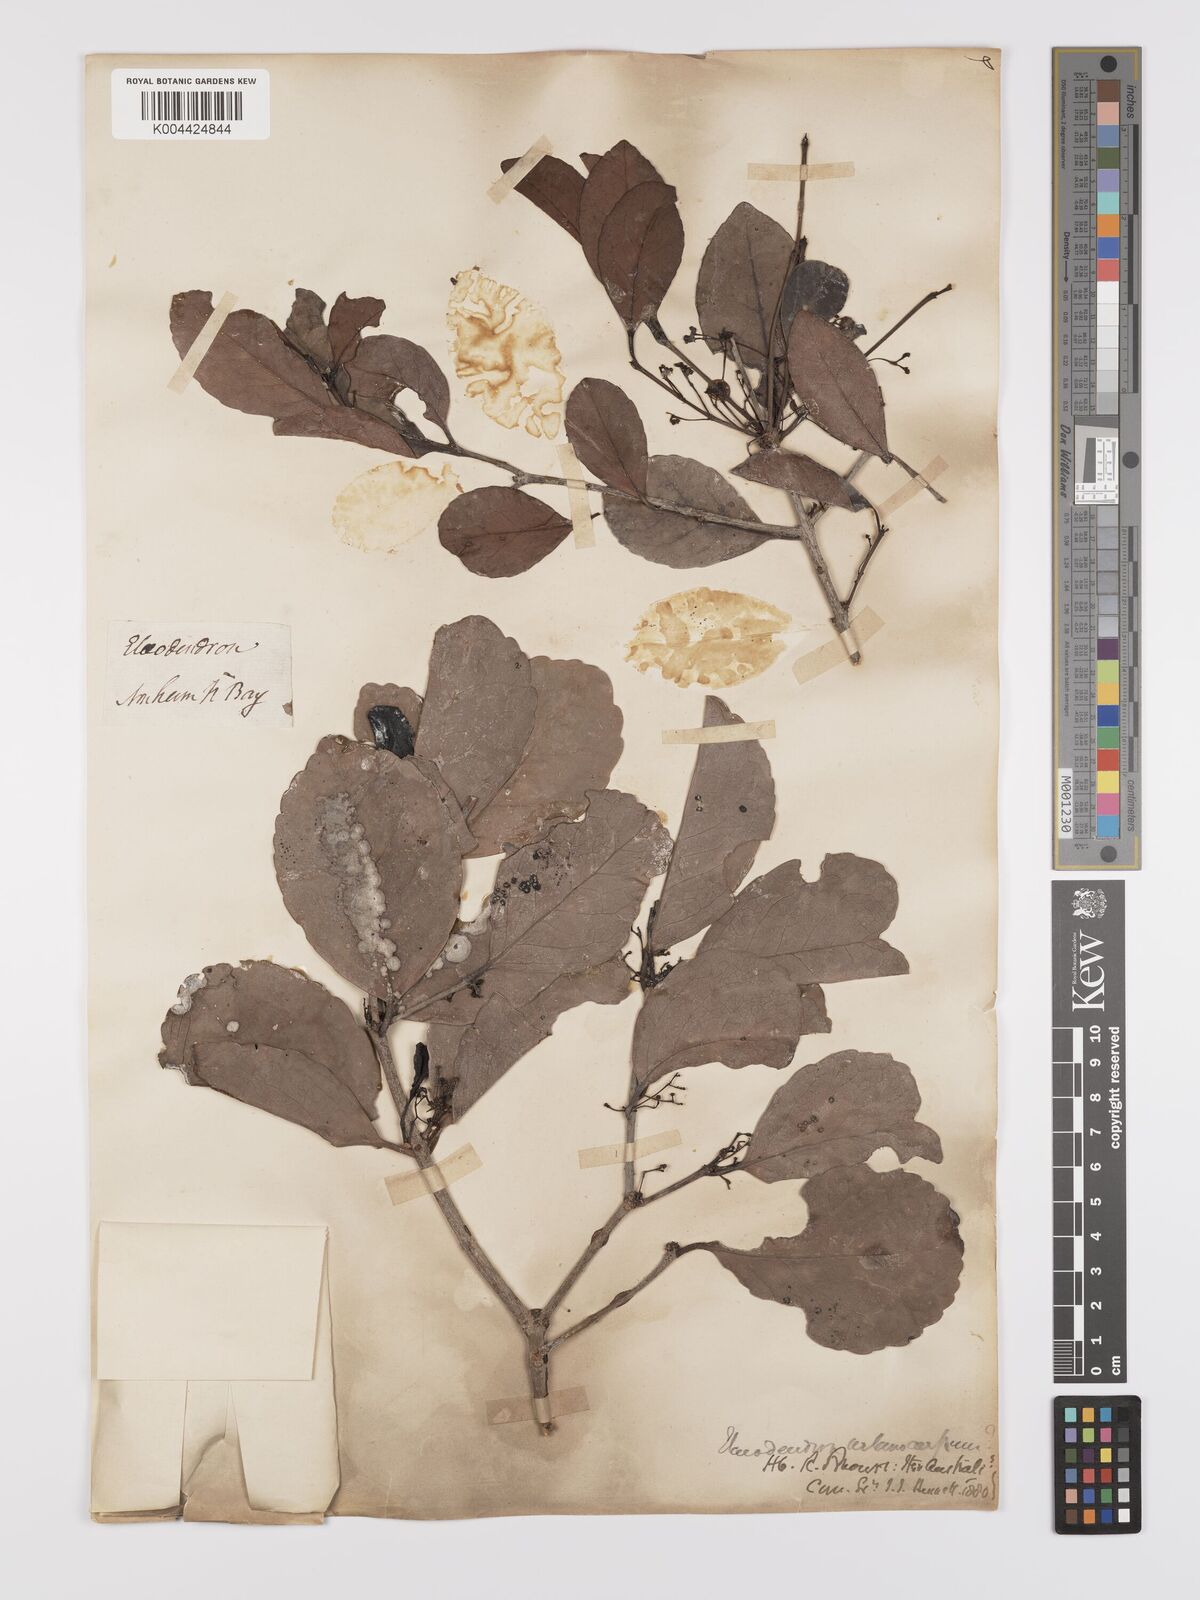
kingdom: Plantae
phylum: Tracheophyta
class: Magnoliopsida
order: Celastrales
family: Celastraceae
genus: Elaeodendron
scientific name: Elaeodendron melanocarpum
